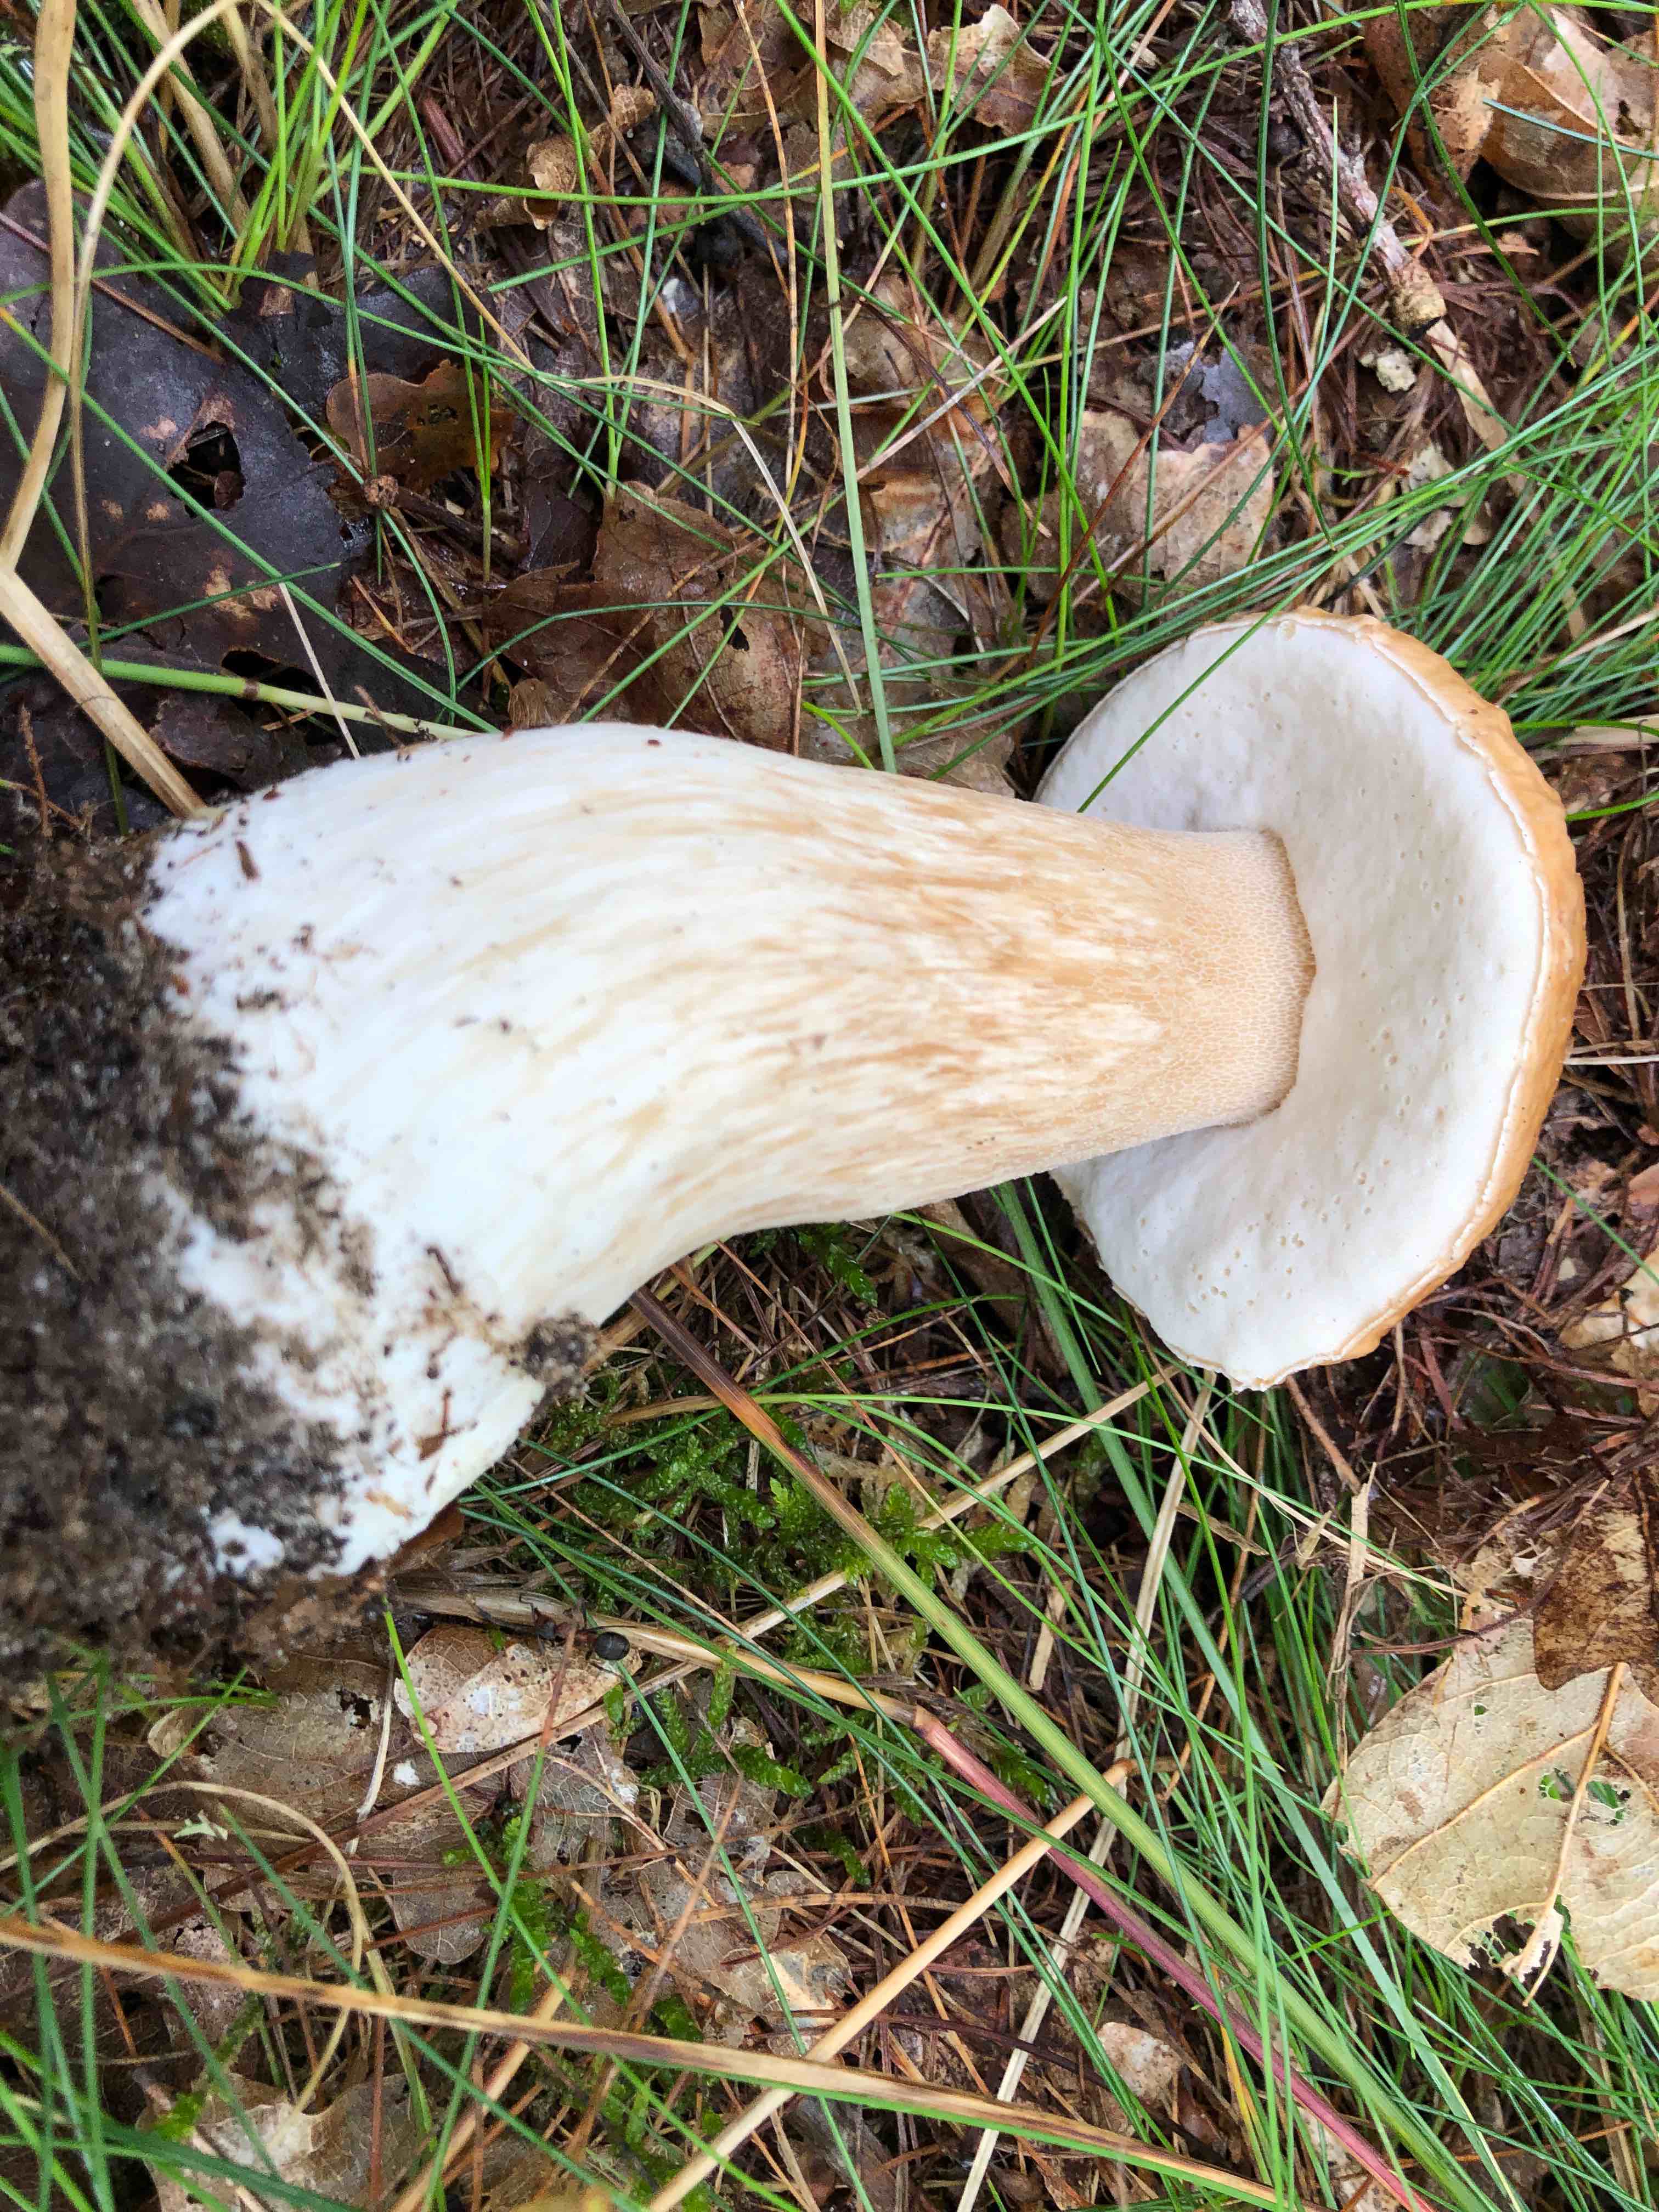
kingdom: Fungi
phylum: Basidiomycota
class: Agaricomycetes
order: Boletales
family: Boletaceae
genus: Boletus
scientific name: Boletus edulis
